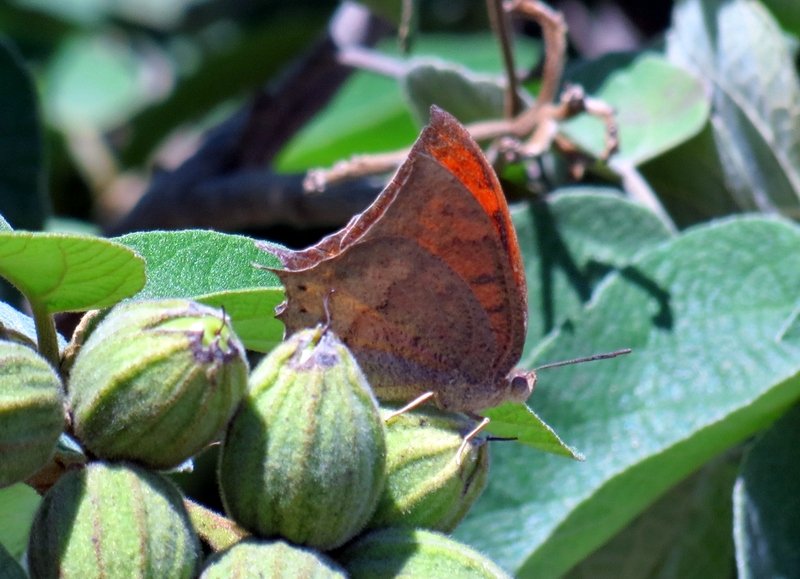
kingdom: Animalia
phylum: Arthropoda
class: Insecta
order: Lepidoptera
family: Nymphalidae
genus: Anaea
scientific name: Anaea aidea
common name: Tropical Leafwing
